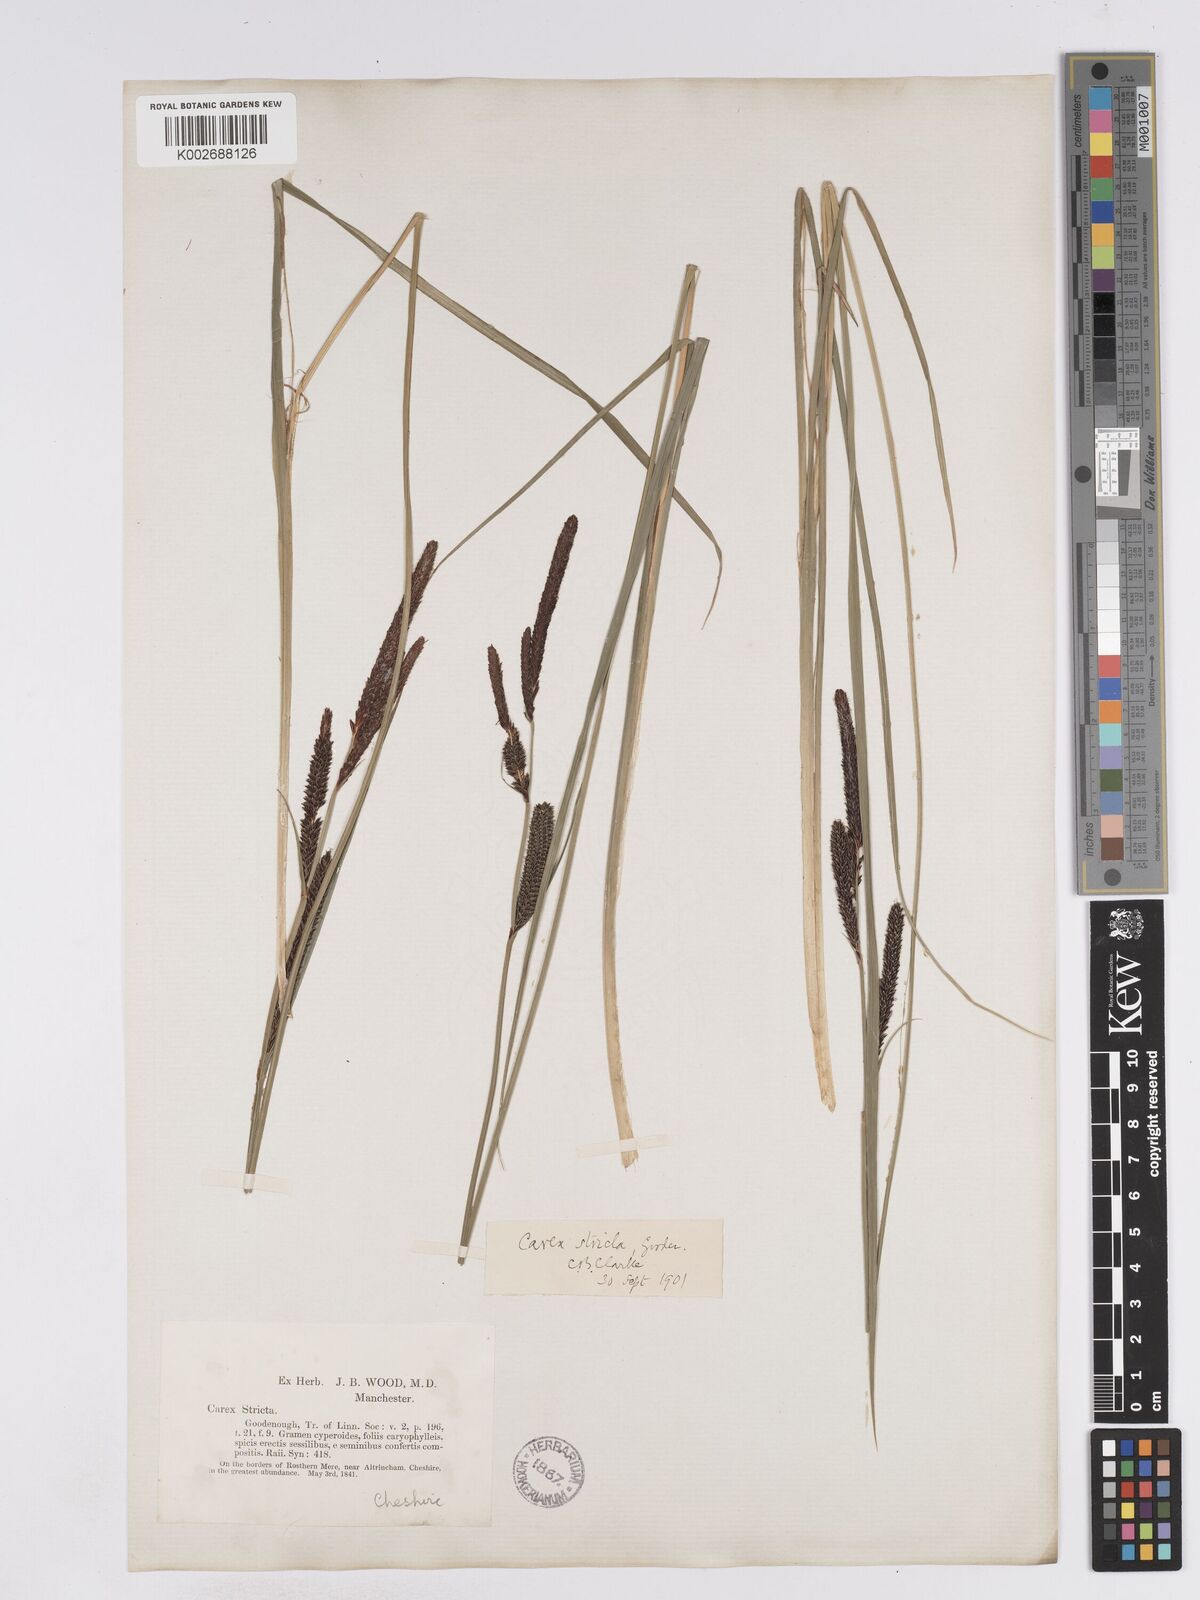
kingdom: Plantae
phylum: Tracheophyta
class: Liliopsida
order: Poales
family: Cyperaceae
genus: Carex
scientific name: Carex elata
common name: Tufted sedge
